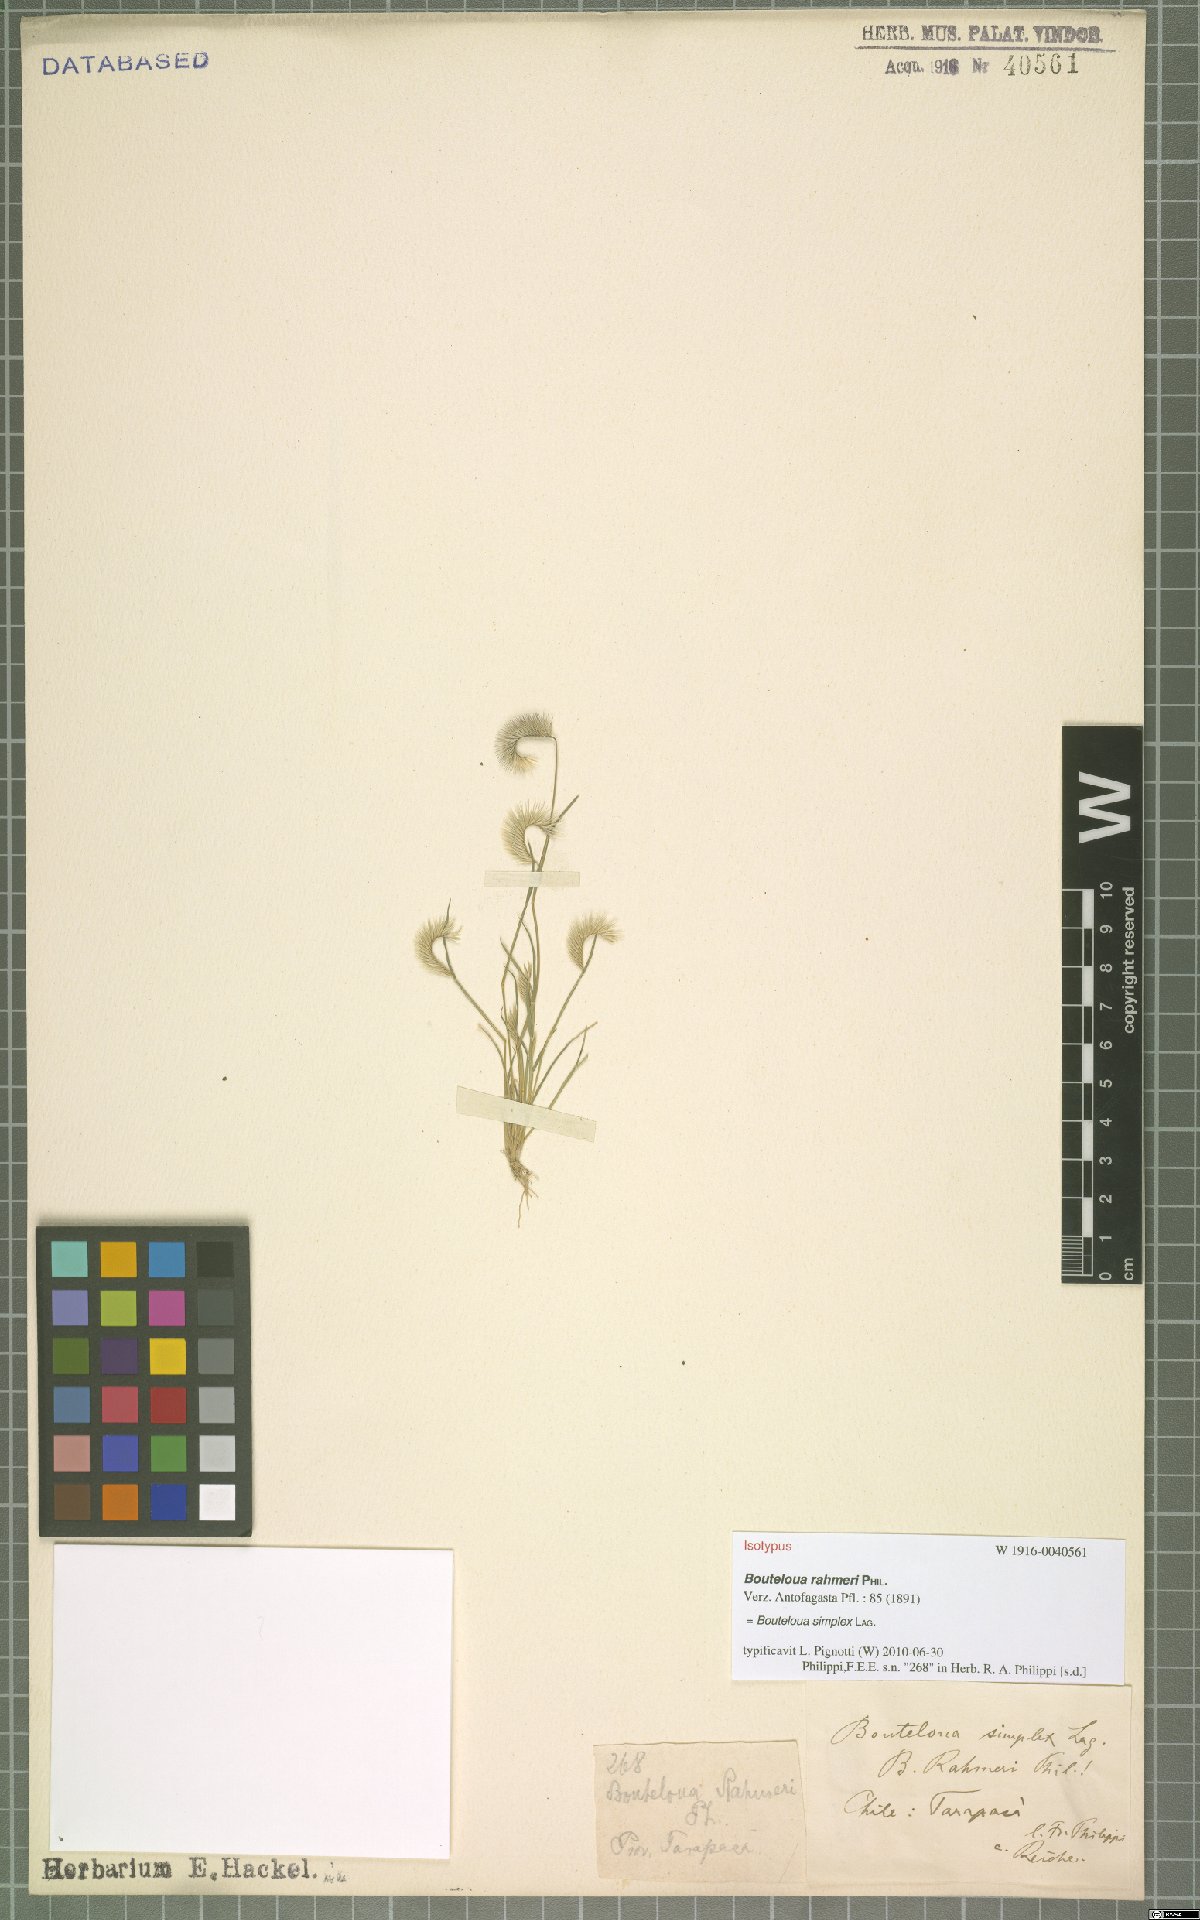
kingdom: Plantae
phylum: Tracheophyta
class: Liliopsida
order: Poales
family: Poaceae
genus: Bouteloua
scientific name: Bouteloua simplex
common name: Mat grama
